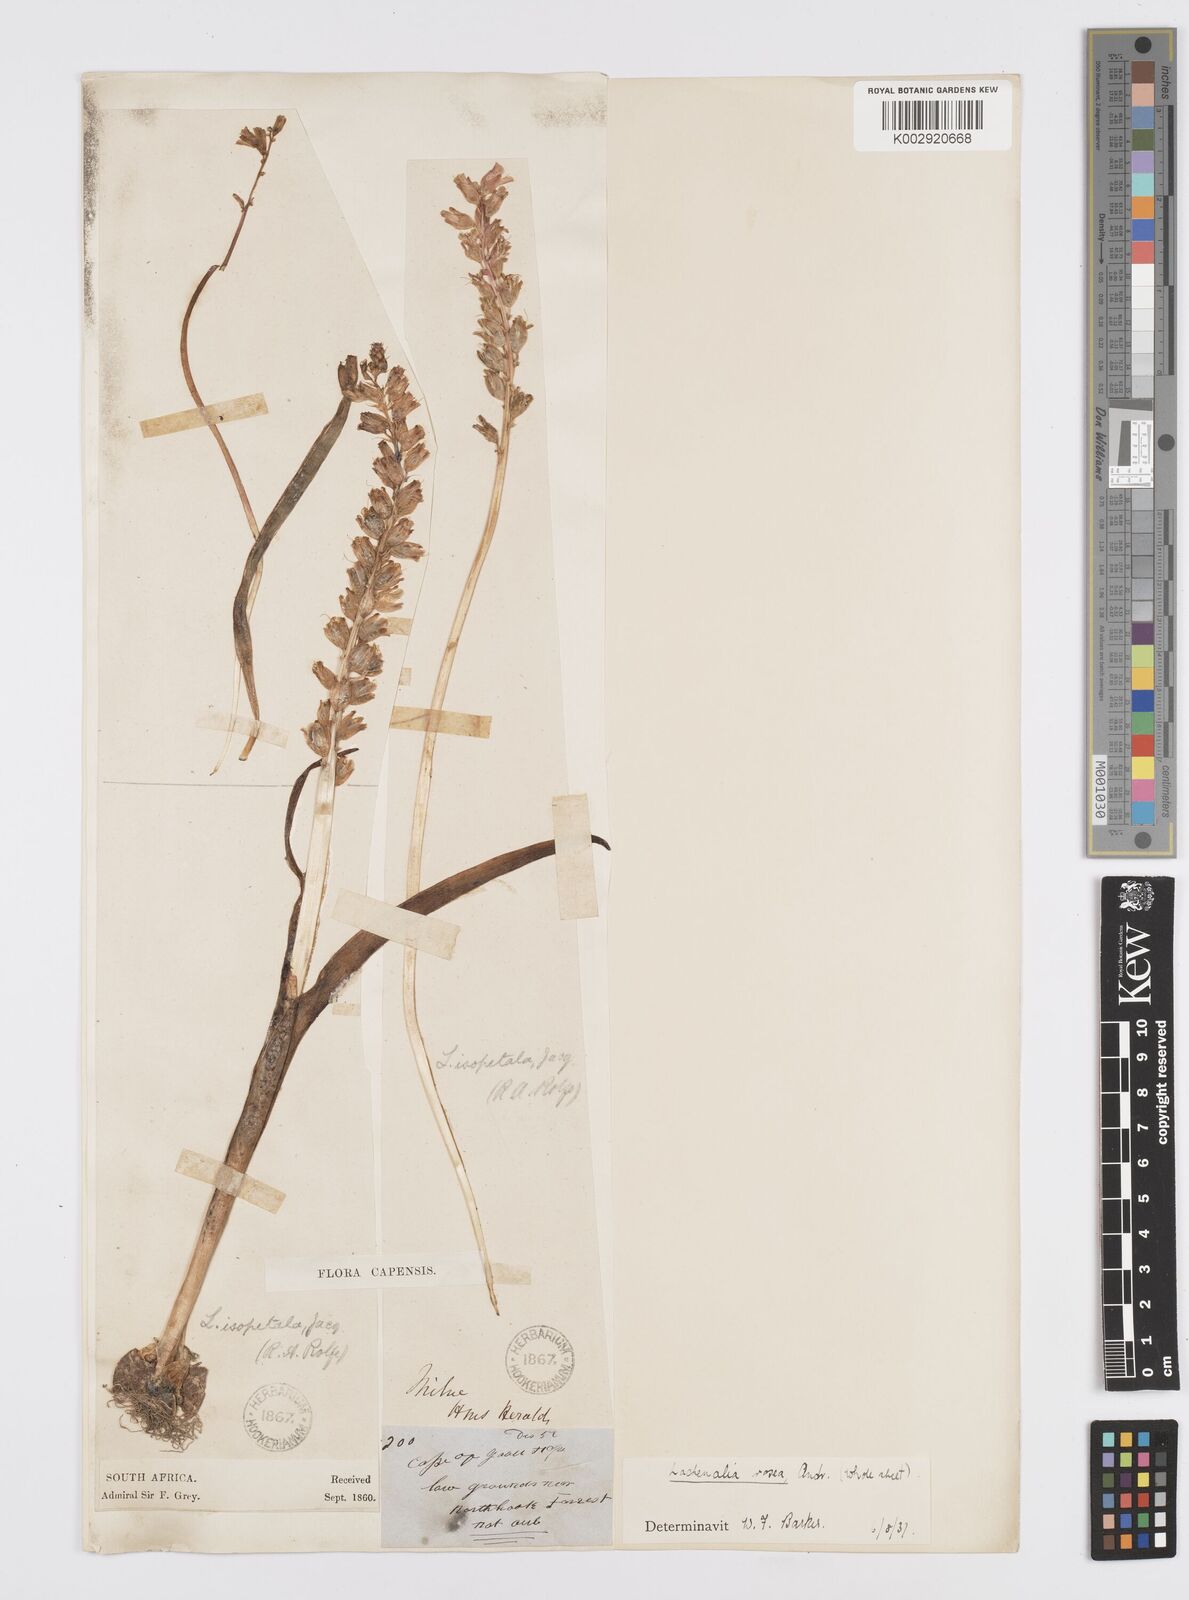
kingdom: Plantae
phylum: Tracheophyta
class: Liliopsida
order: Asparagales
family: Asparagaceae
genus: Lachenalia
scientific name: Lachenalia rosea
